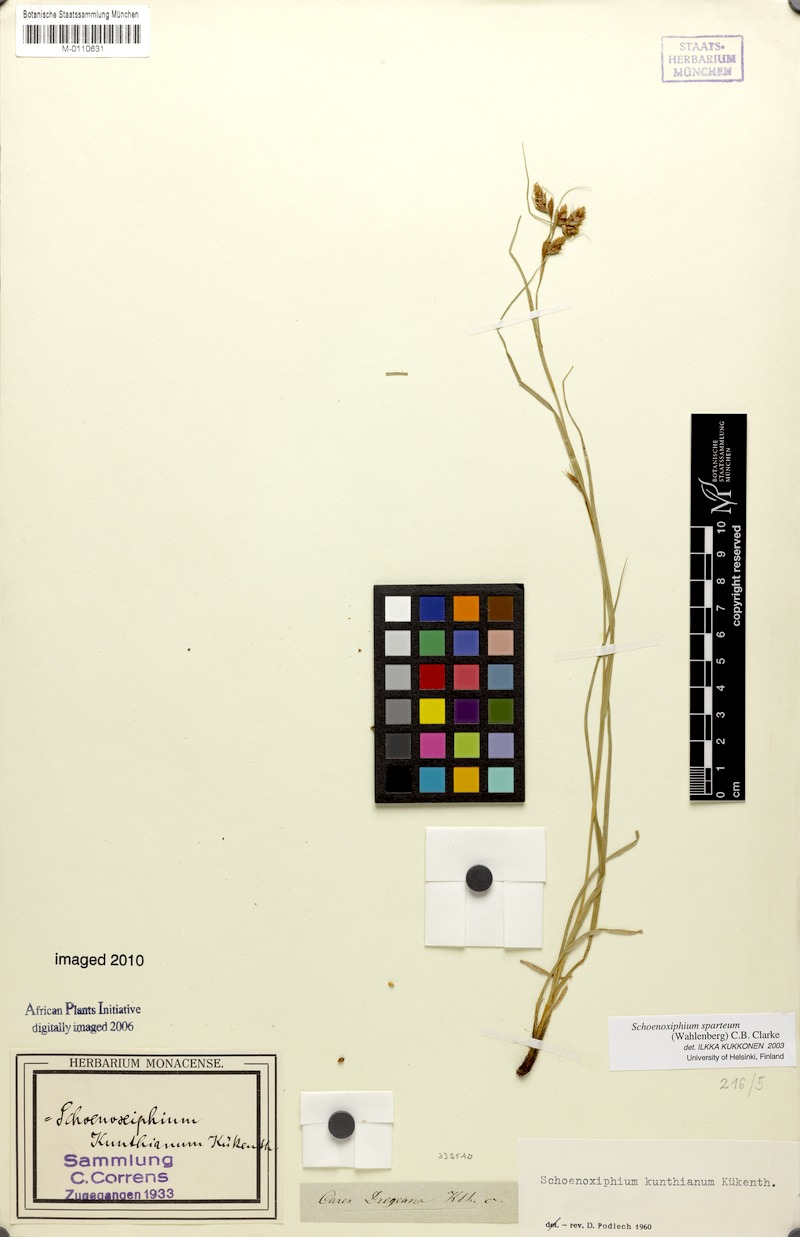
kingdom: Plantae
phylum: Tracheophyta
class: Liliopsida
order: Poales
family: Cyperaceae
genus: Carex
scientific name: Carex spartea
